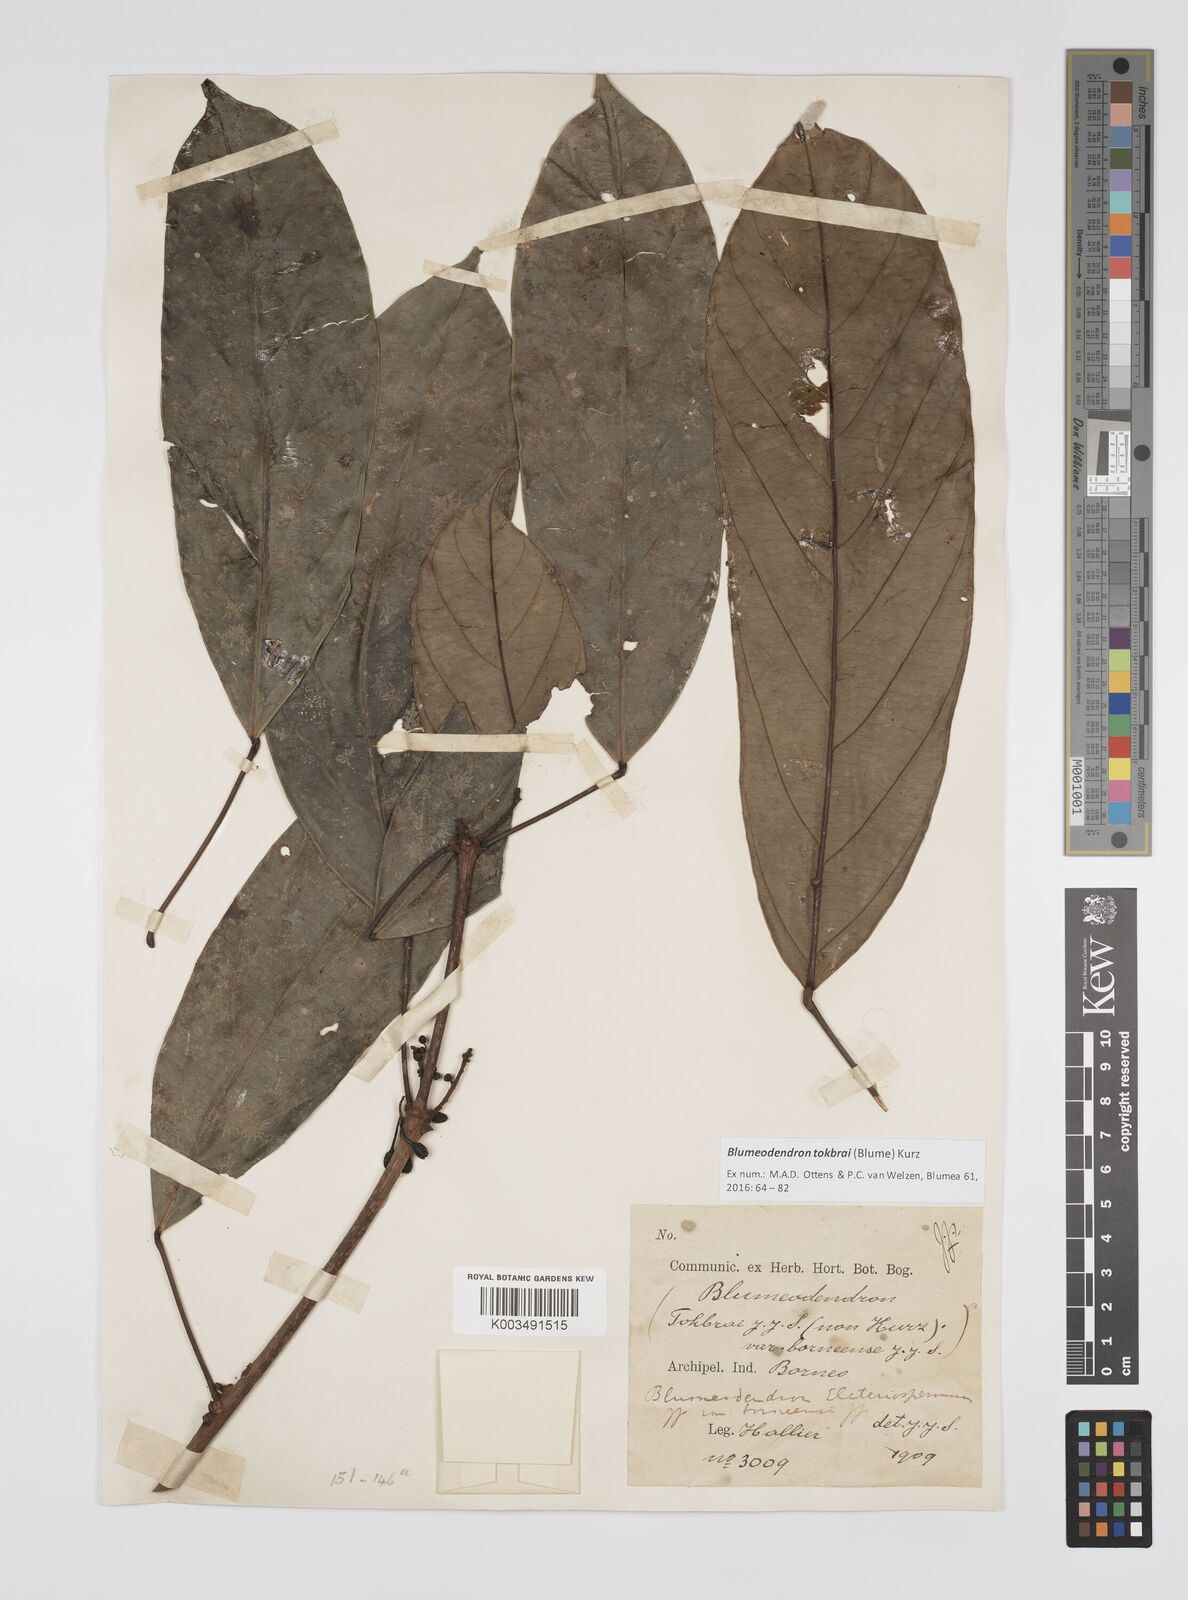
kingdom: Plantae
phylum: Tracheophyta
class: Magnoliopsida
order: Malpighiales
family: Euphorbiaceae
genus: Blumeodendron
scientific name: Blumeodendron tokbrai
